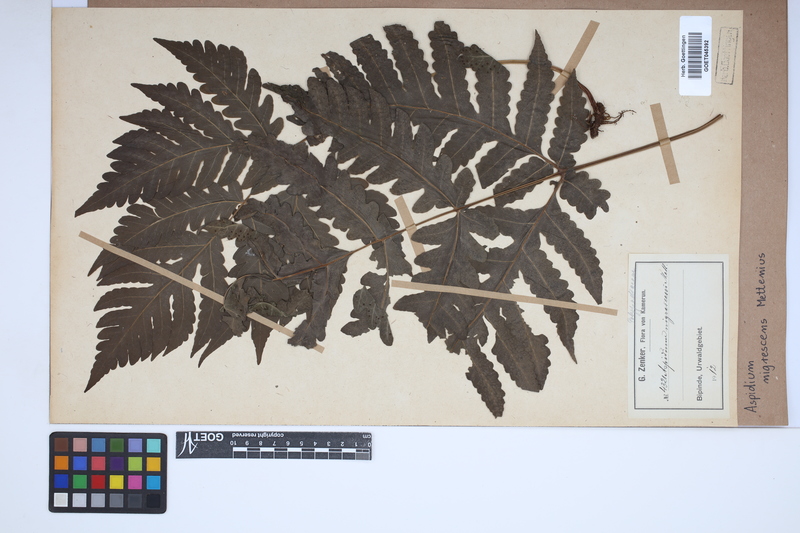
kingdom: Plantae
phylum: Tracheophyta
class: Polypodiopsida
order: Polypodiales
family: Tectariaceae
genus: Tectaria
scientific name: Tectaria angelicifolia
